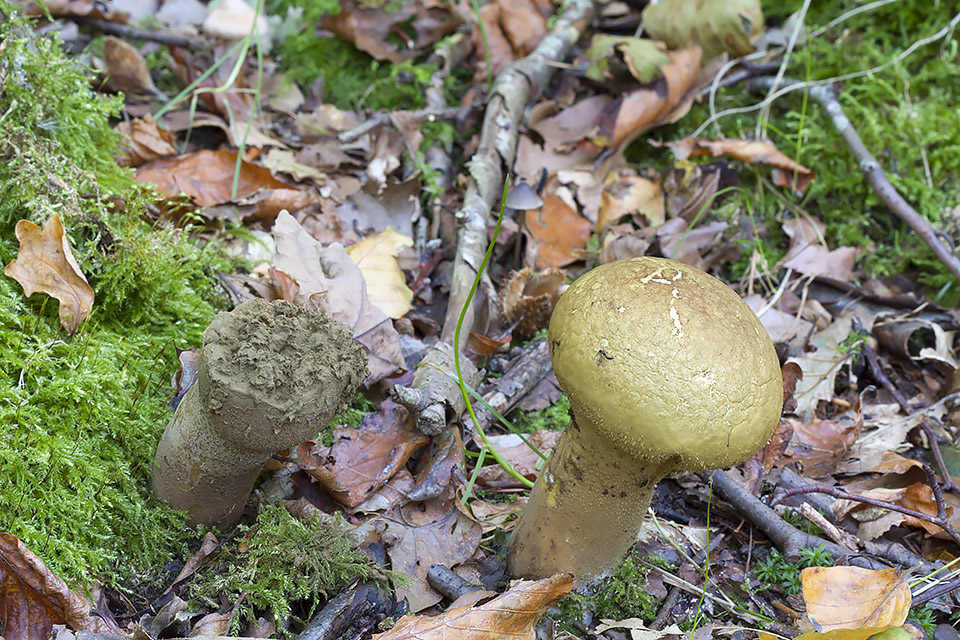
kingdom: Fungi
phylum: Basidiomycota
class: Agaricomycetes
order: Agaricales
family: Lycoperdaceae
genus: Lycoperdon
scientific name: Lycoperdon excipuliforme
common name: højstokket støvbold
